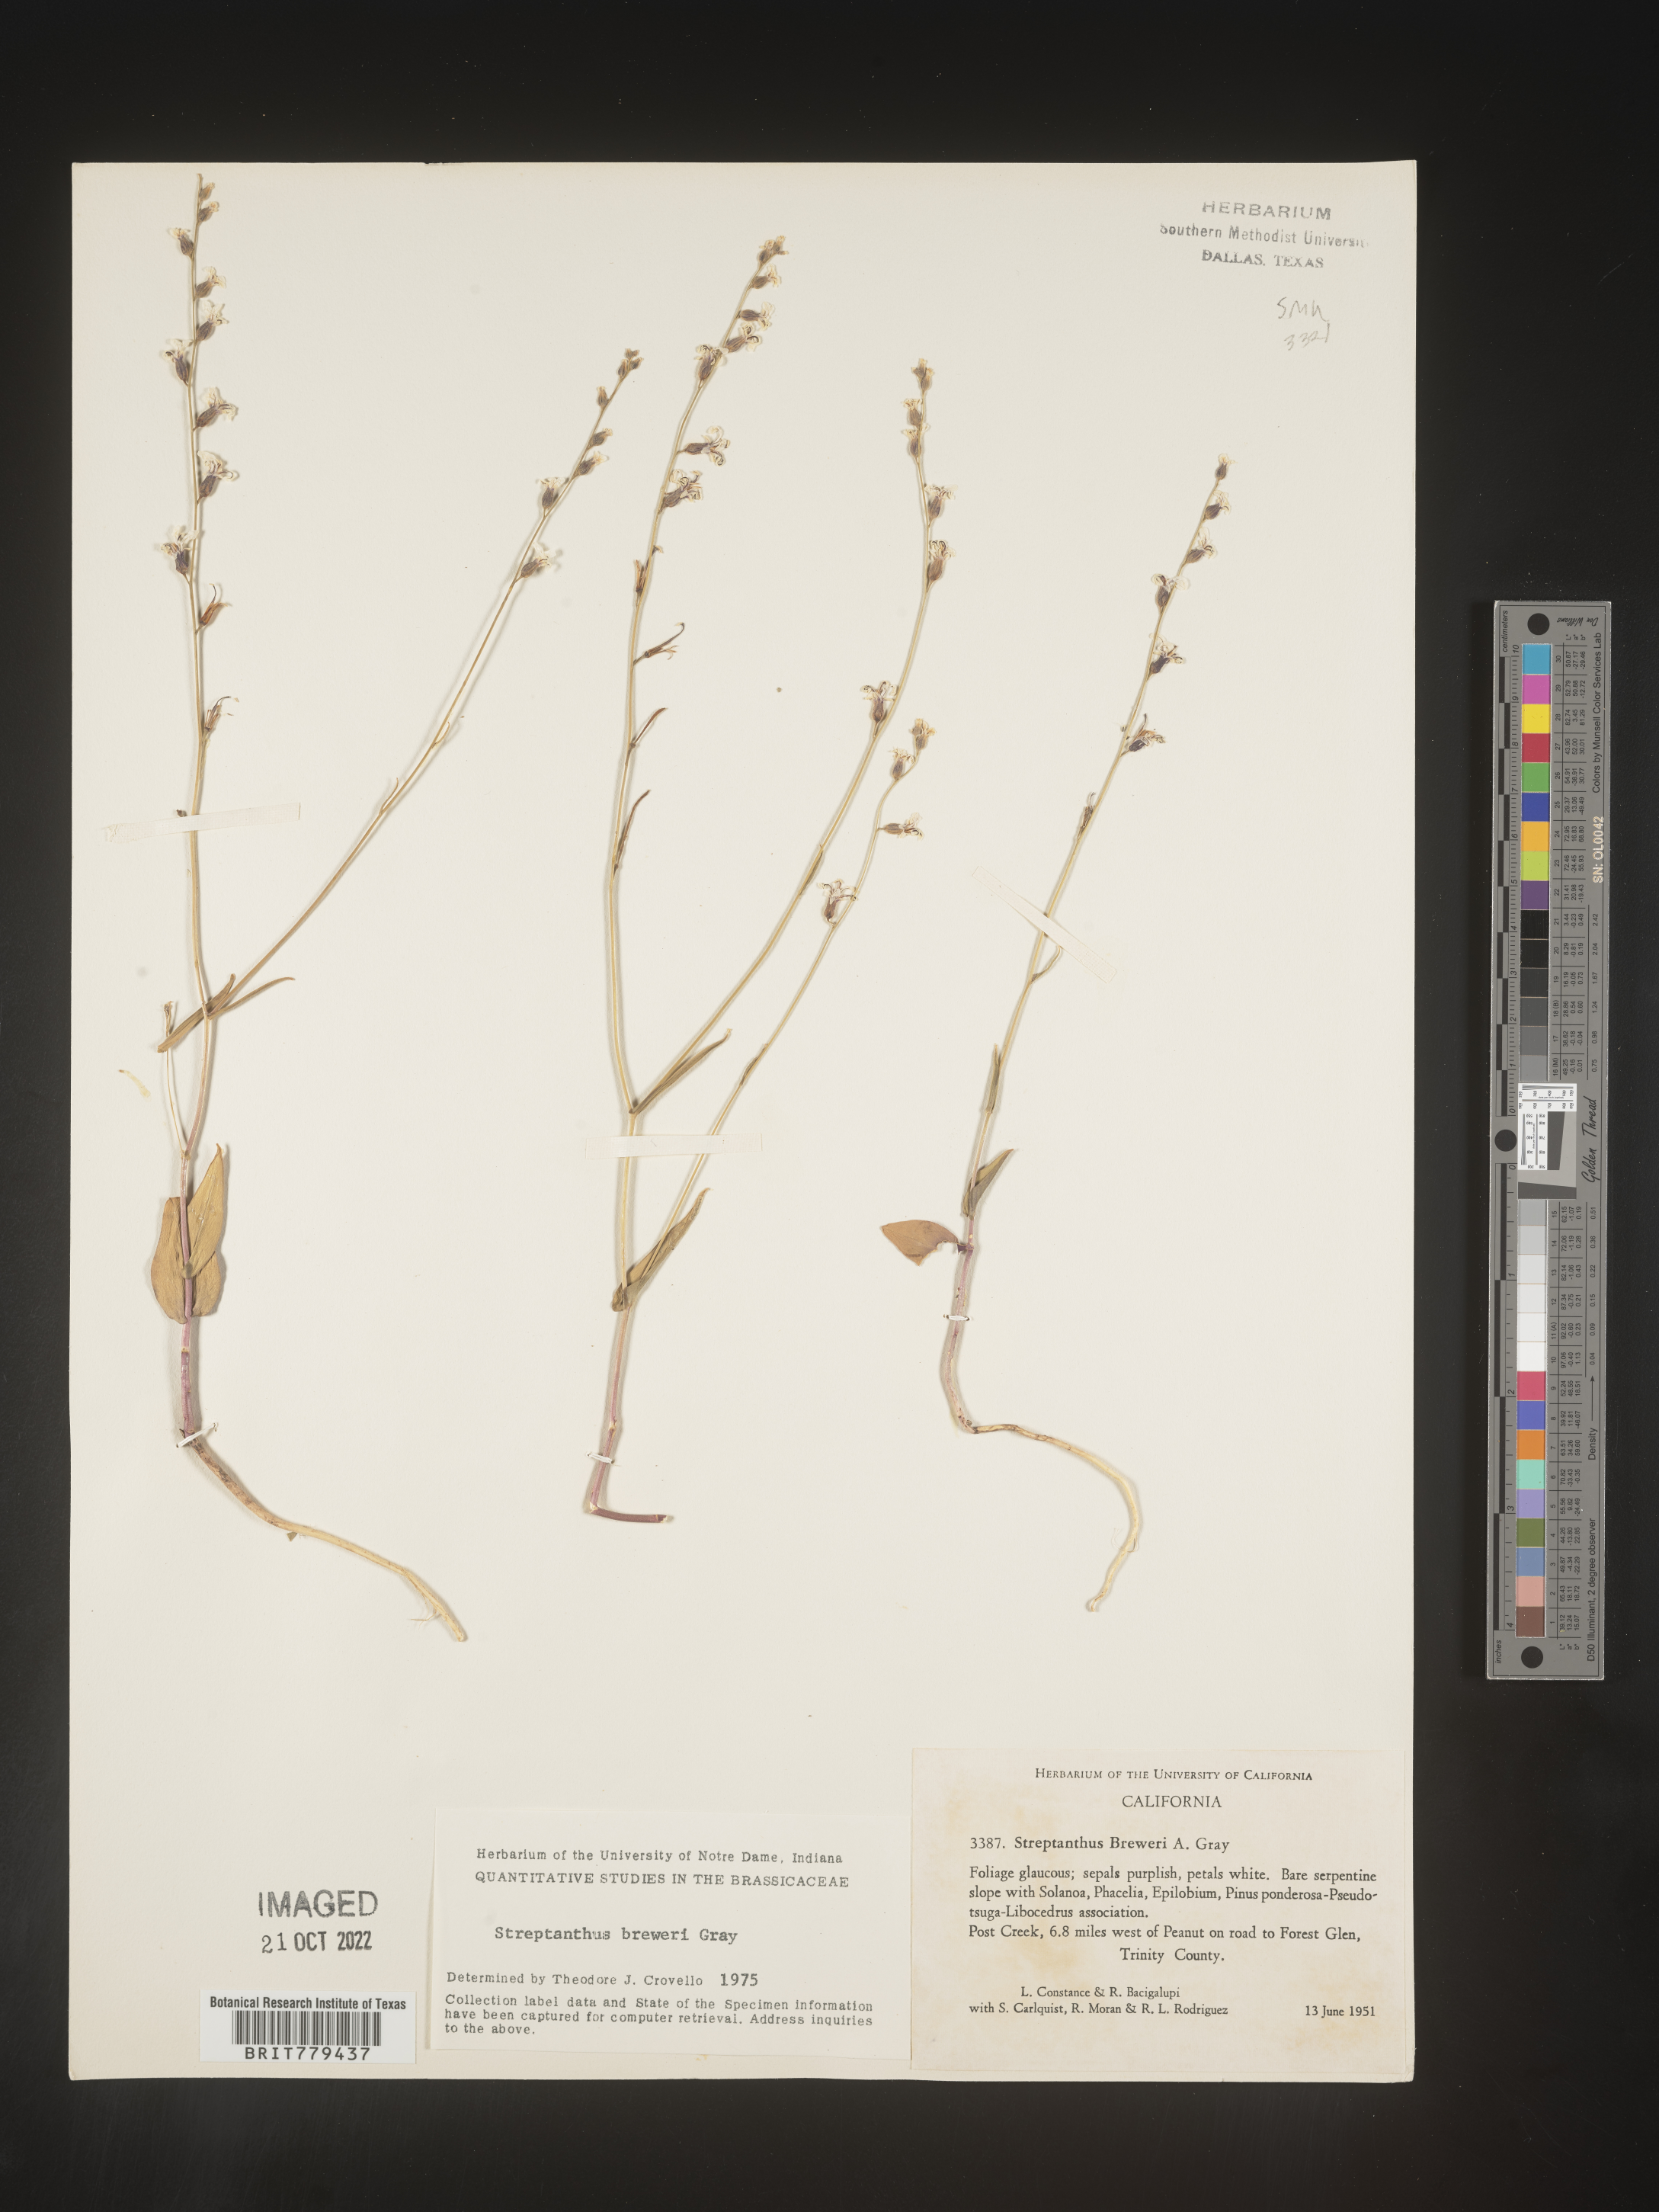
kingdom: Plantae
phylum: Tracheophyta
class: Magnoliopsida
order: Brassicales
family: Brassicaceae
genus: Streptanthus
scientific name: Streptanthus
